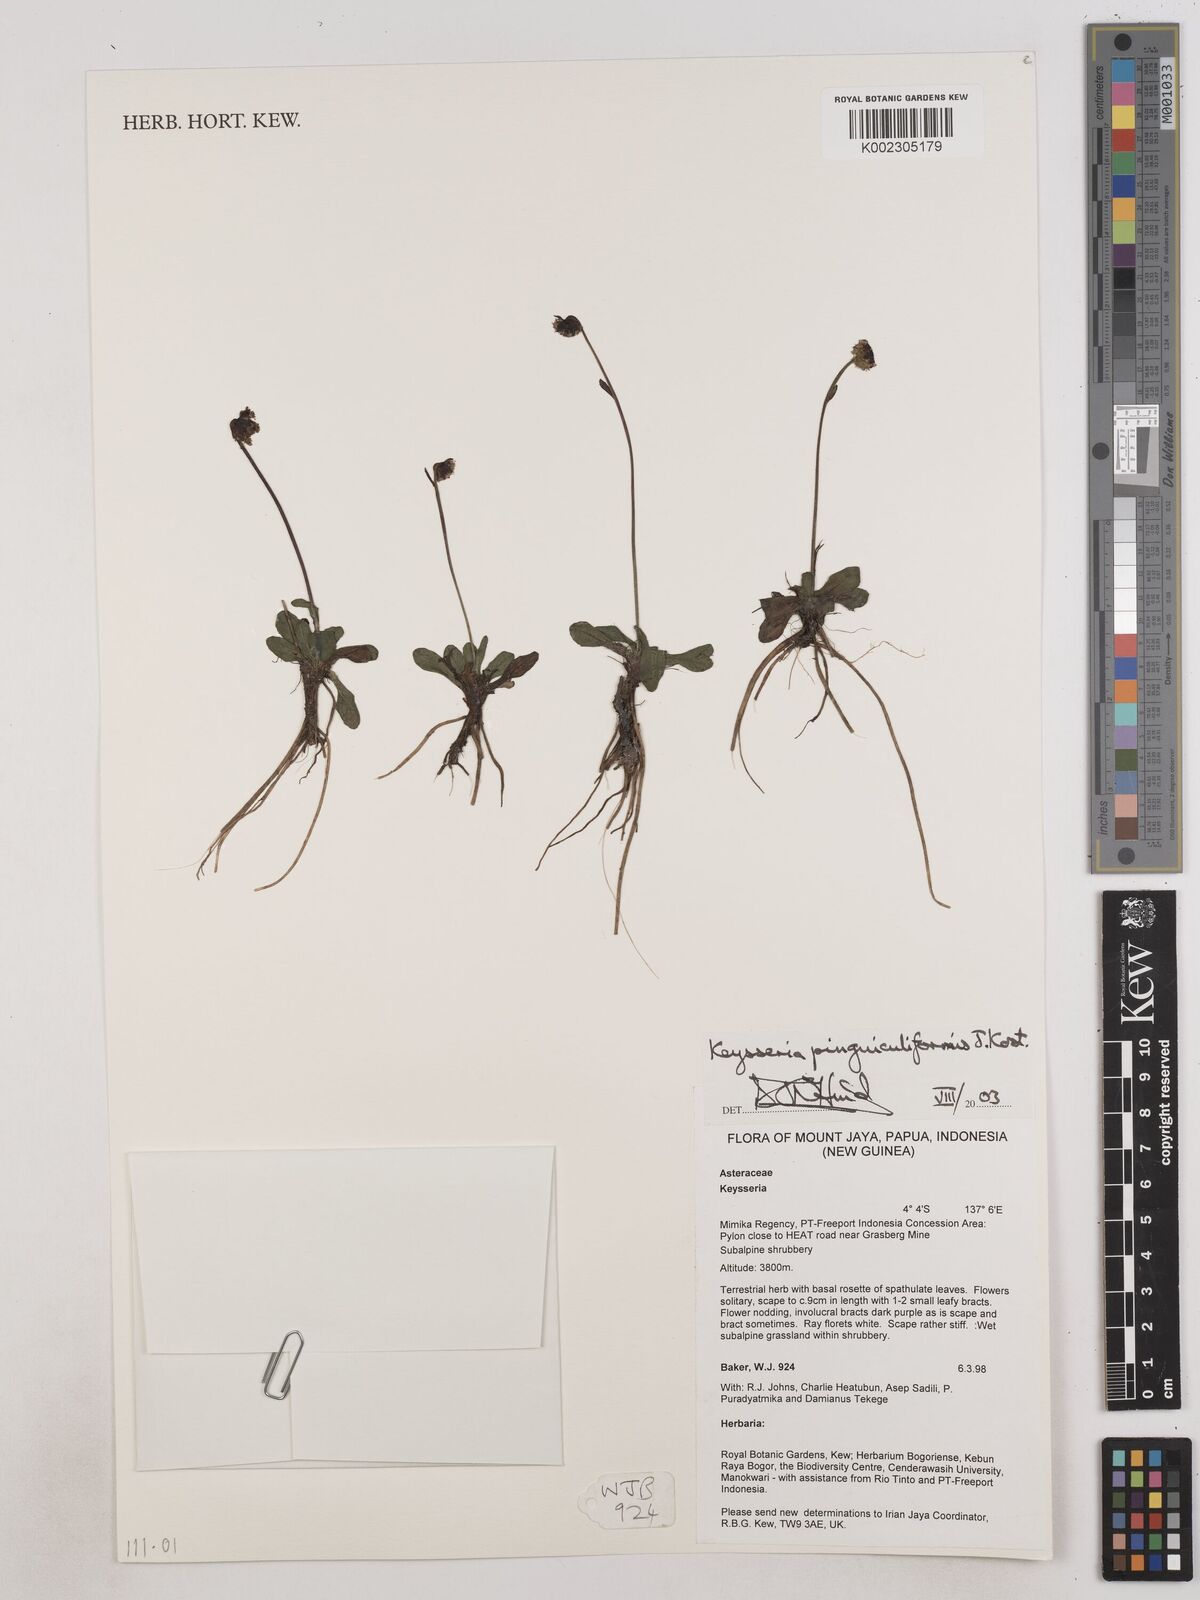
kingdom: Plantae
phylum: Tracheophyta
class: Magnoliopsida
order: Asterales
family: Asteraceae
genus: Keysseria
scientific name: Keysseria pinguiculiformis
